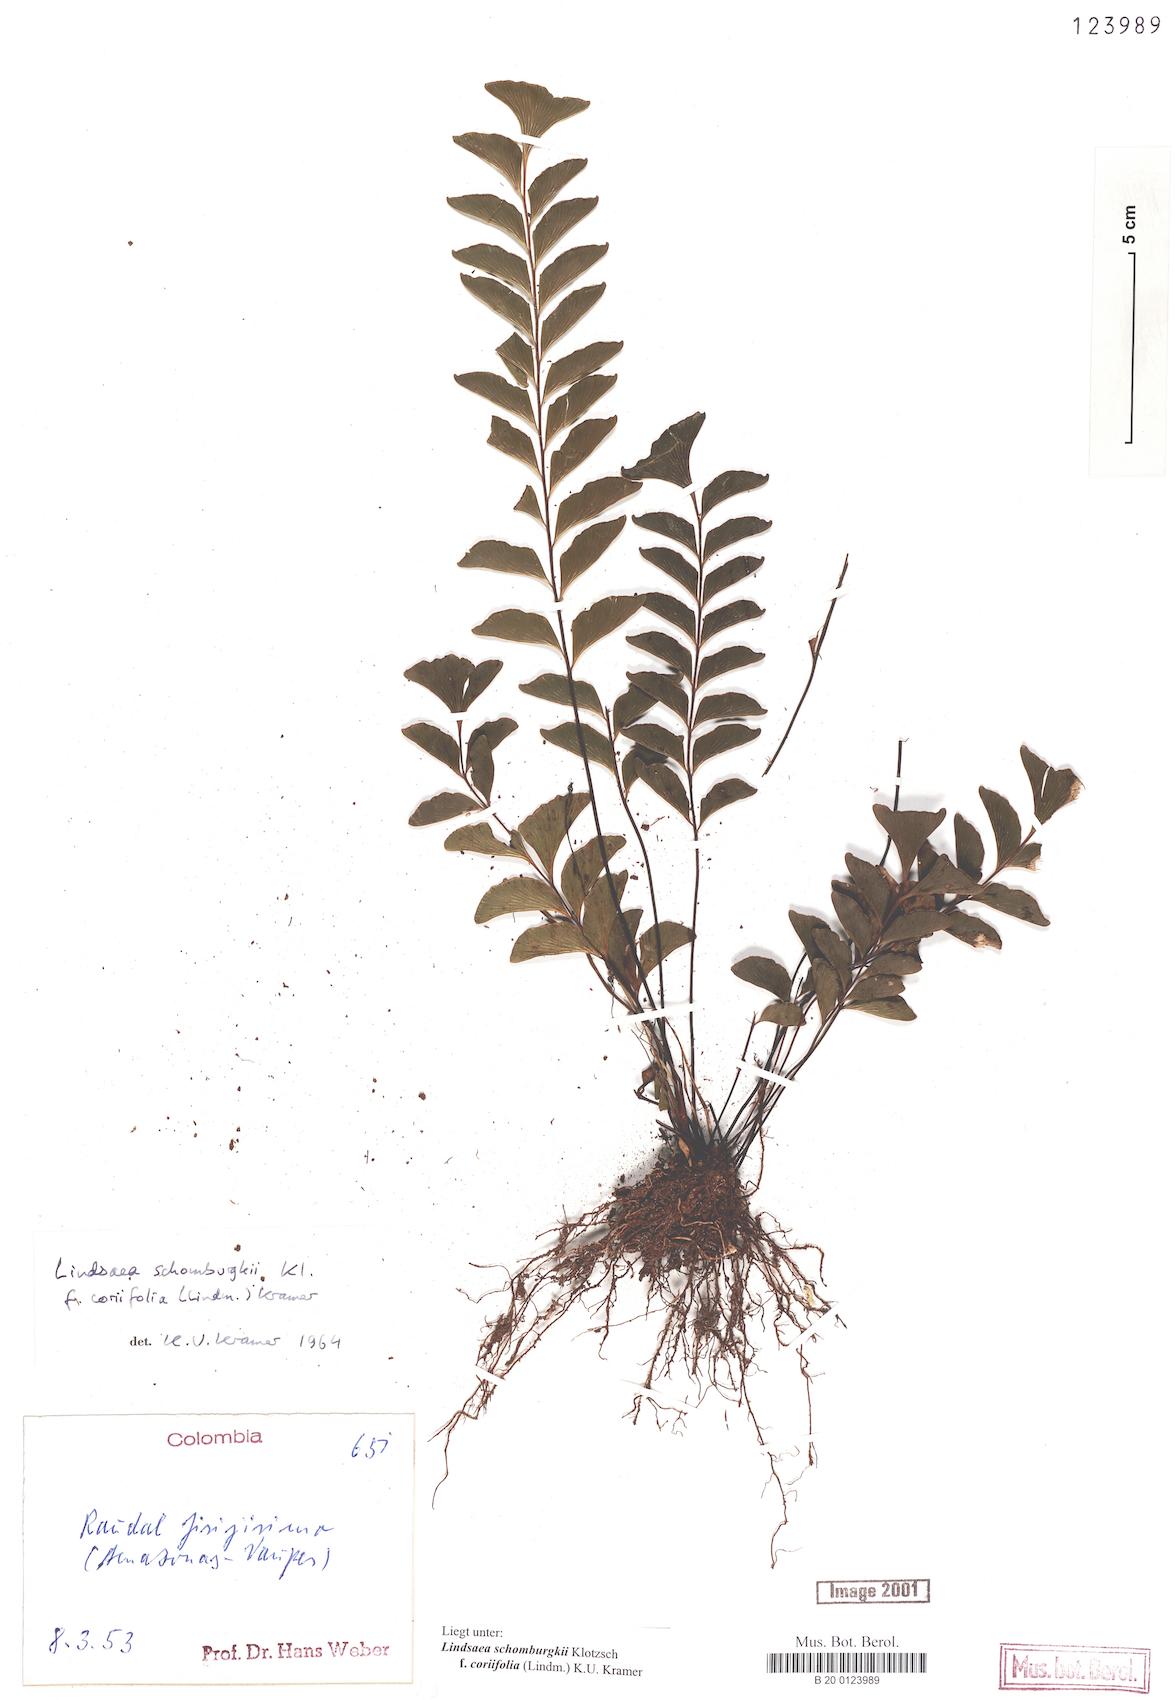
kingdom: Plantae
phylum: Tracheophyta
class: Polypodiopsida
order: Polypodiales
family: Lindsaeaceae
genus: Lindsaea
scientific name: Lindsaea schomburgkii
